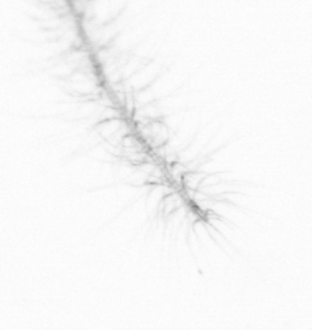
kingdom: Chromista
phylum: Ochrophyta
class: Bacillariophyceae
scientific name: Bacillariophyceae
